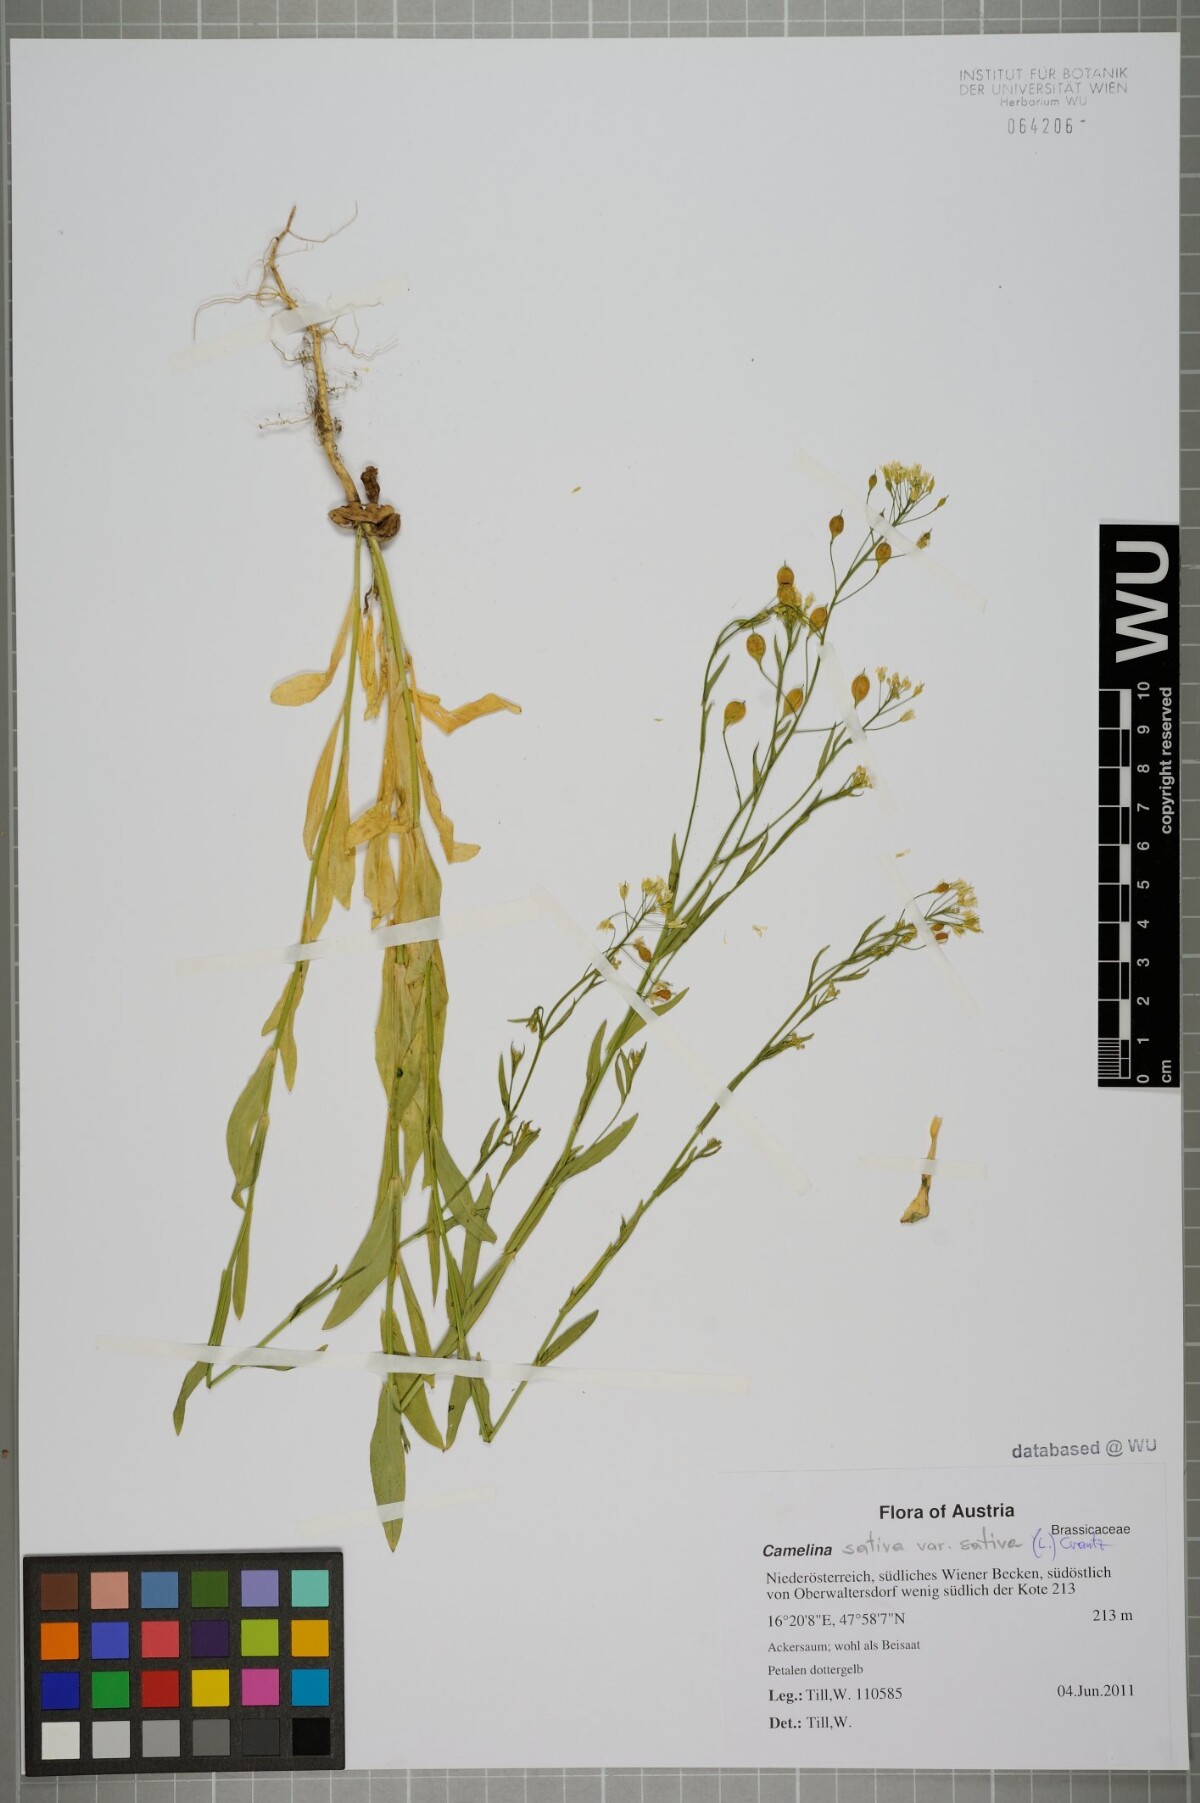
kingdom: Plantae
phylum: Tracheophyta
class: Magnoliopsida
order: Brassicales
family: Brassicaceae
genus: Camelina
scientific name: Camelina sativa
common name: Gold-of-pleasure
